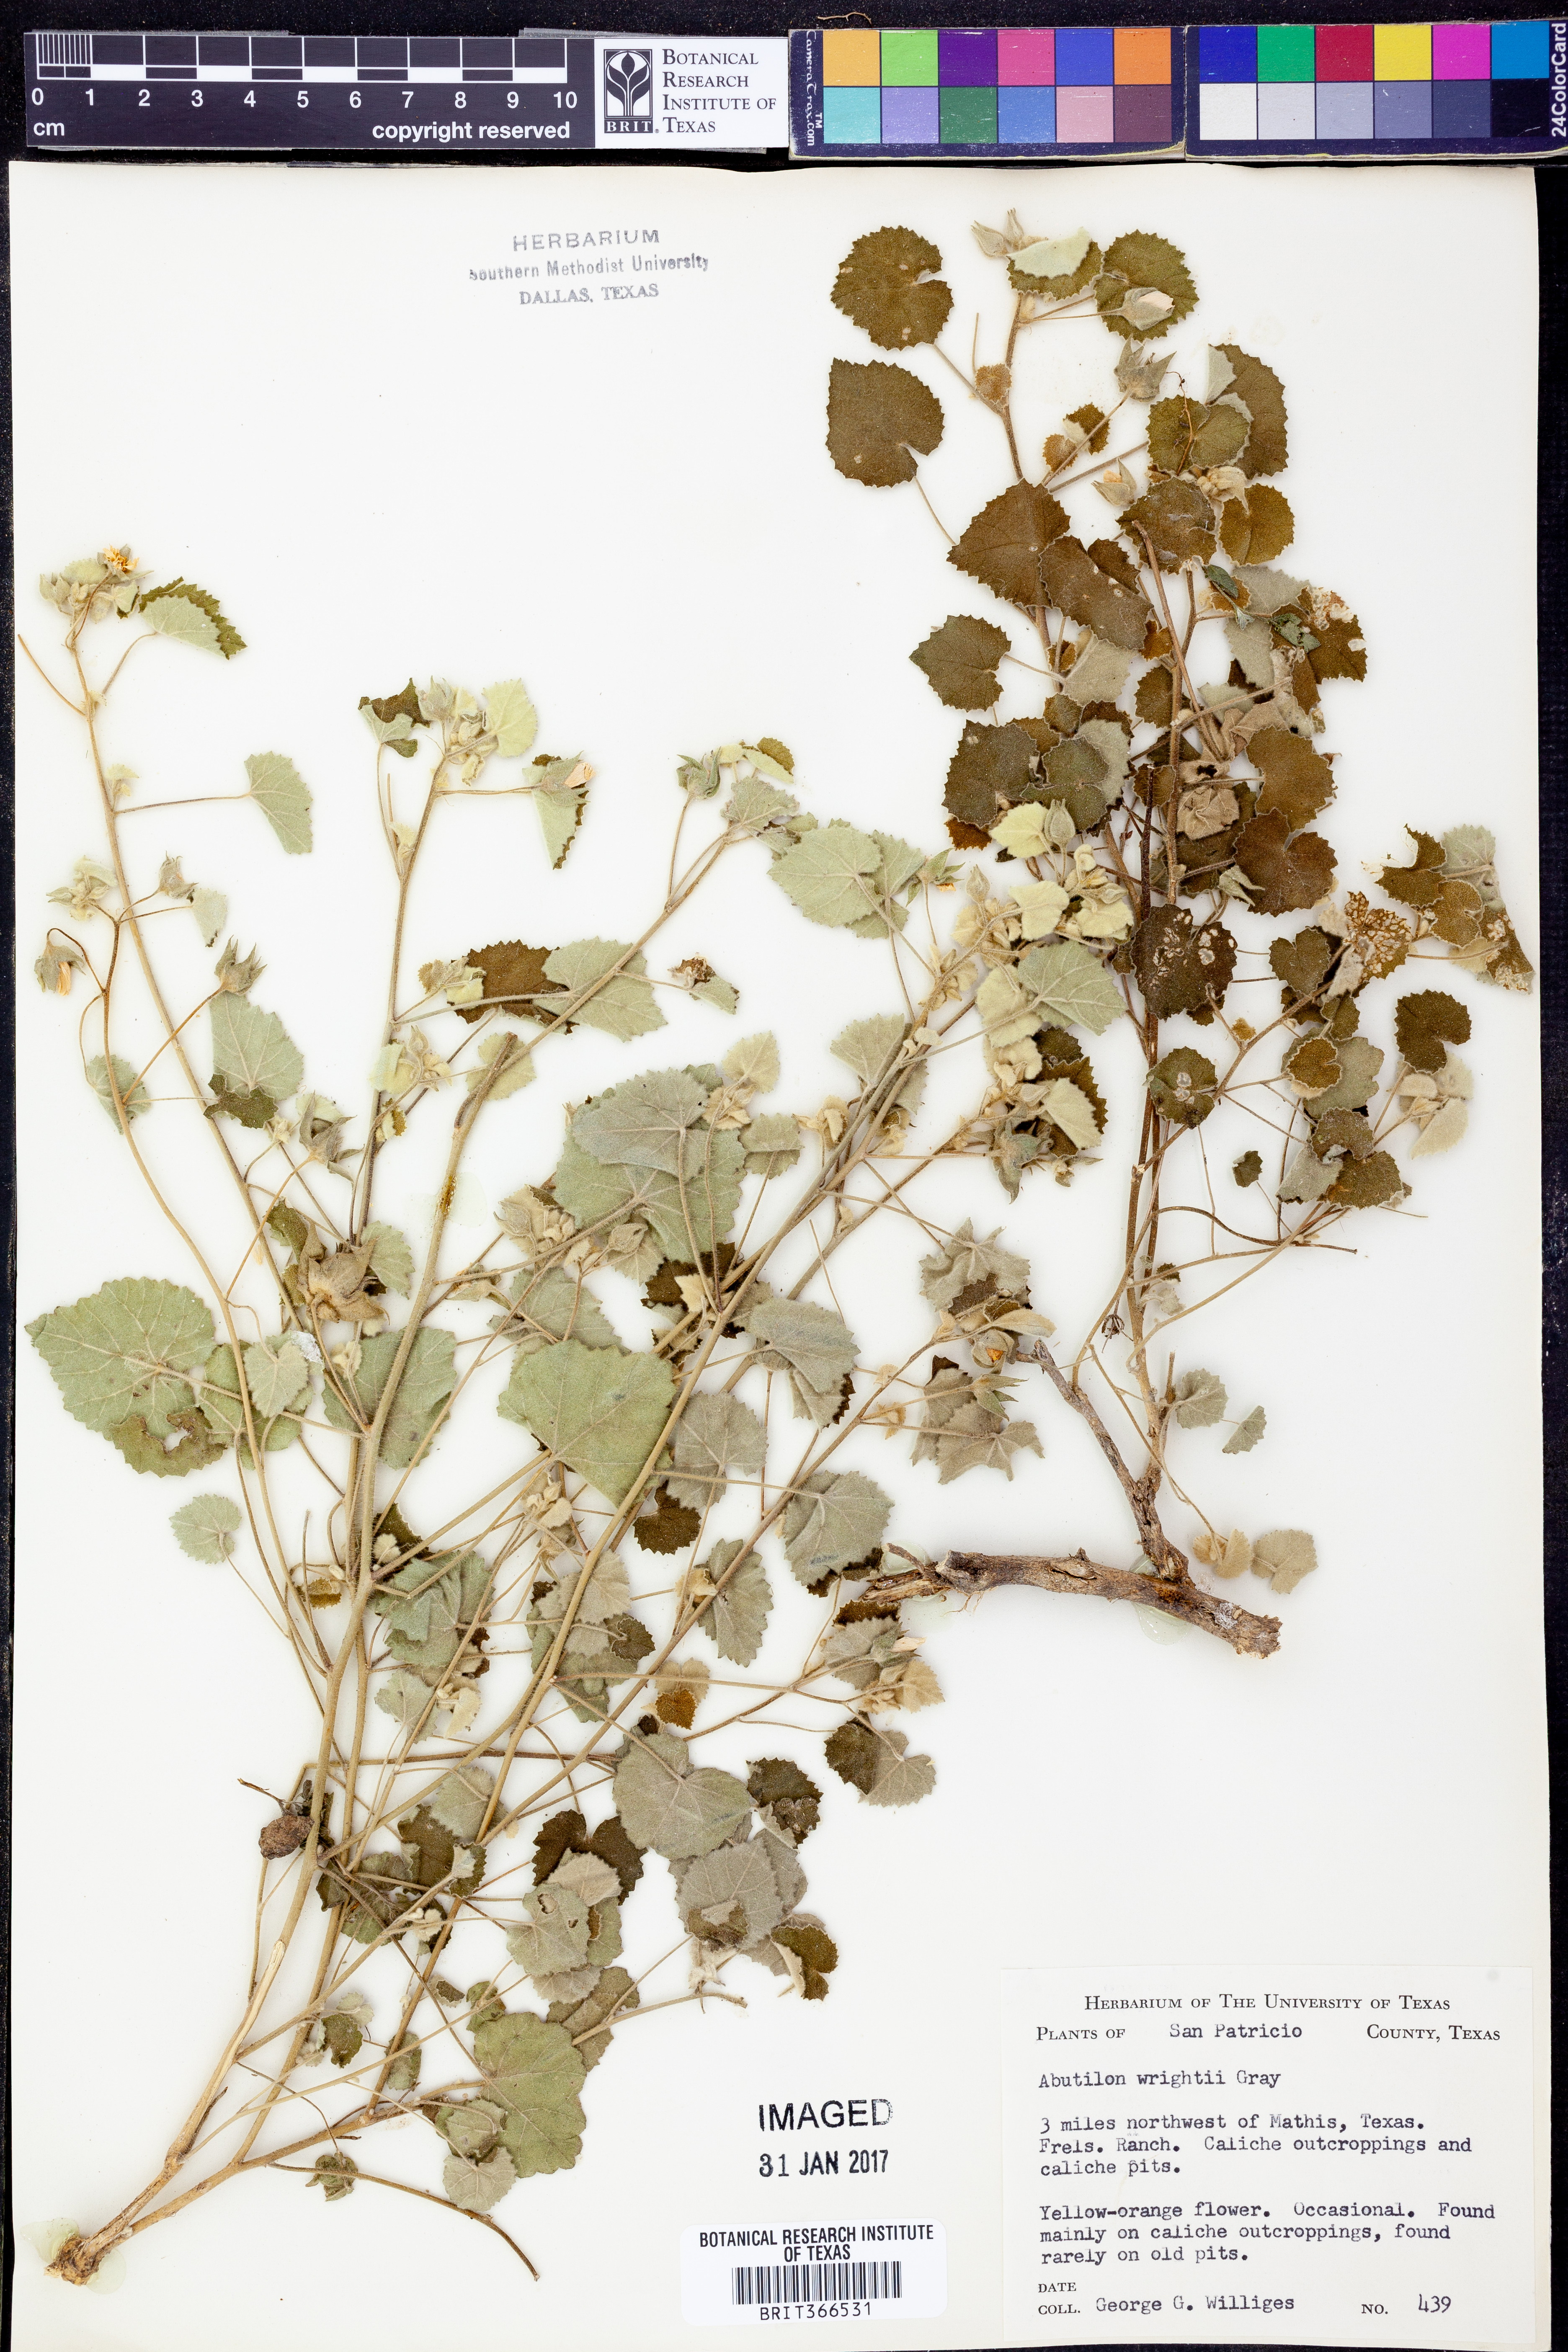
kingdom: Plantae
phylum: Tracheophyta
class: Magnoliopsida
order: Malvales
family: Malvaceae
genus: Abutilon
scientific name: Abutilon wrightii
